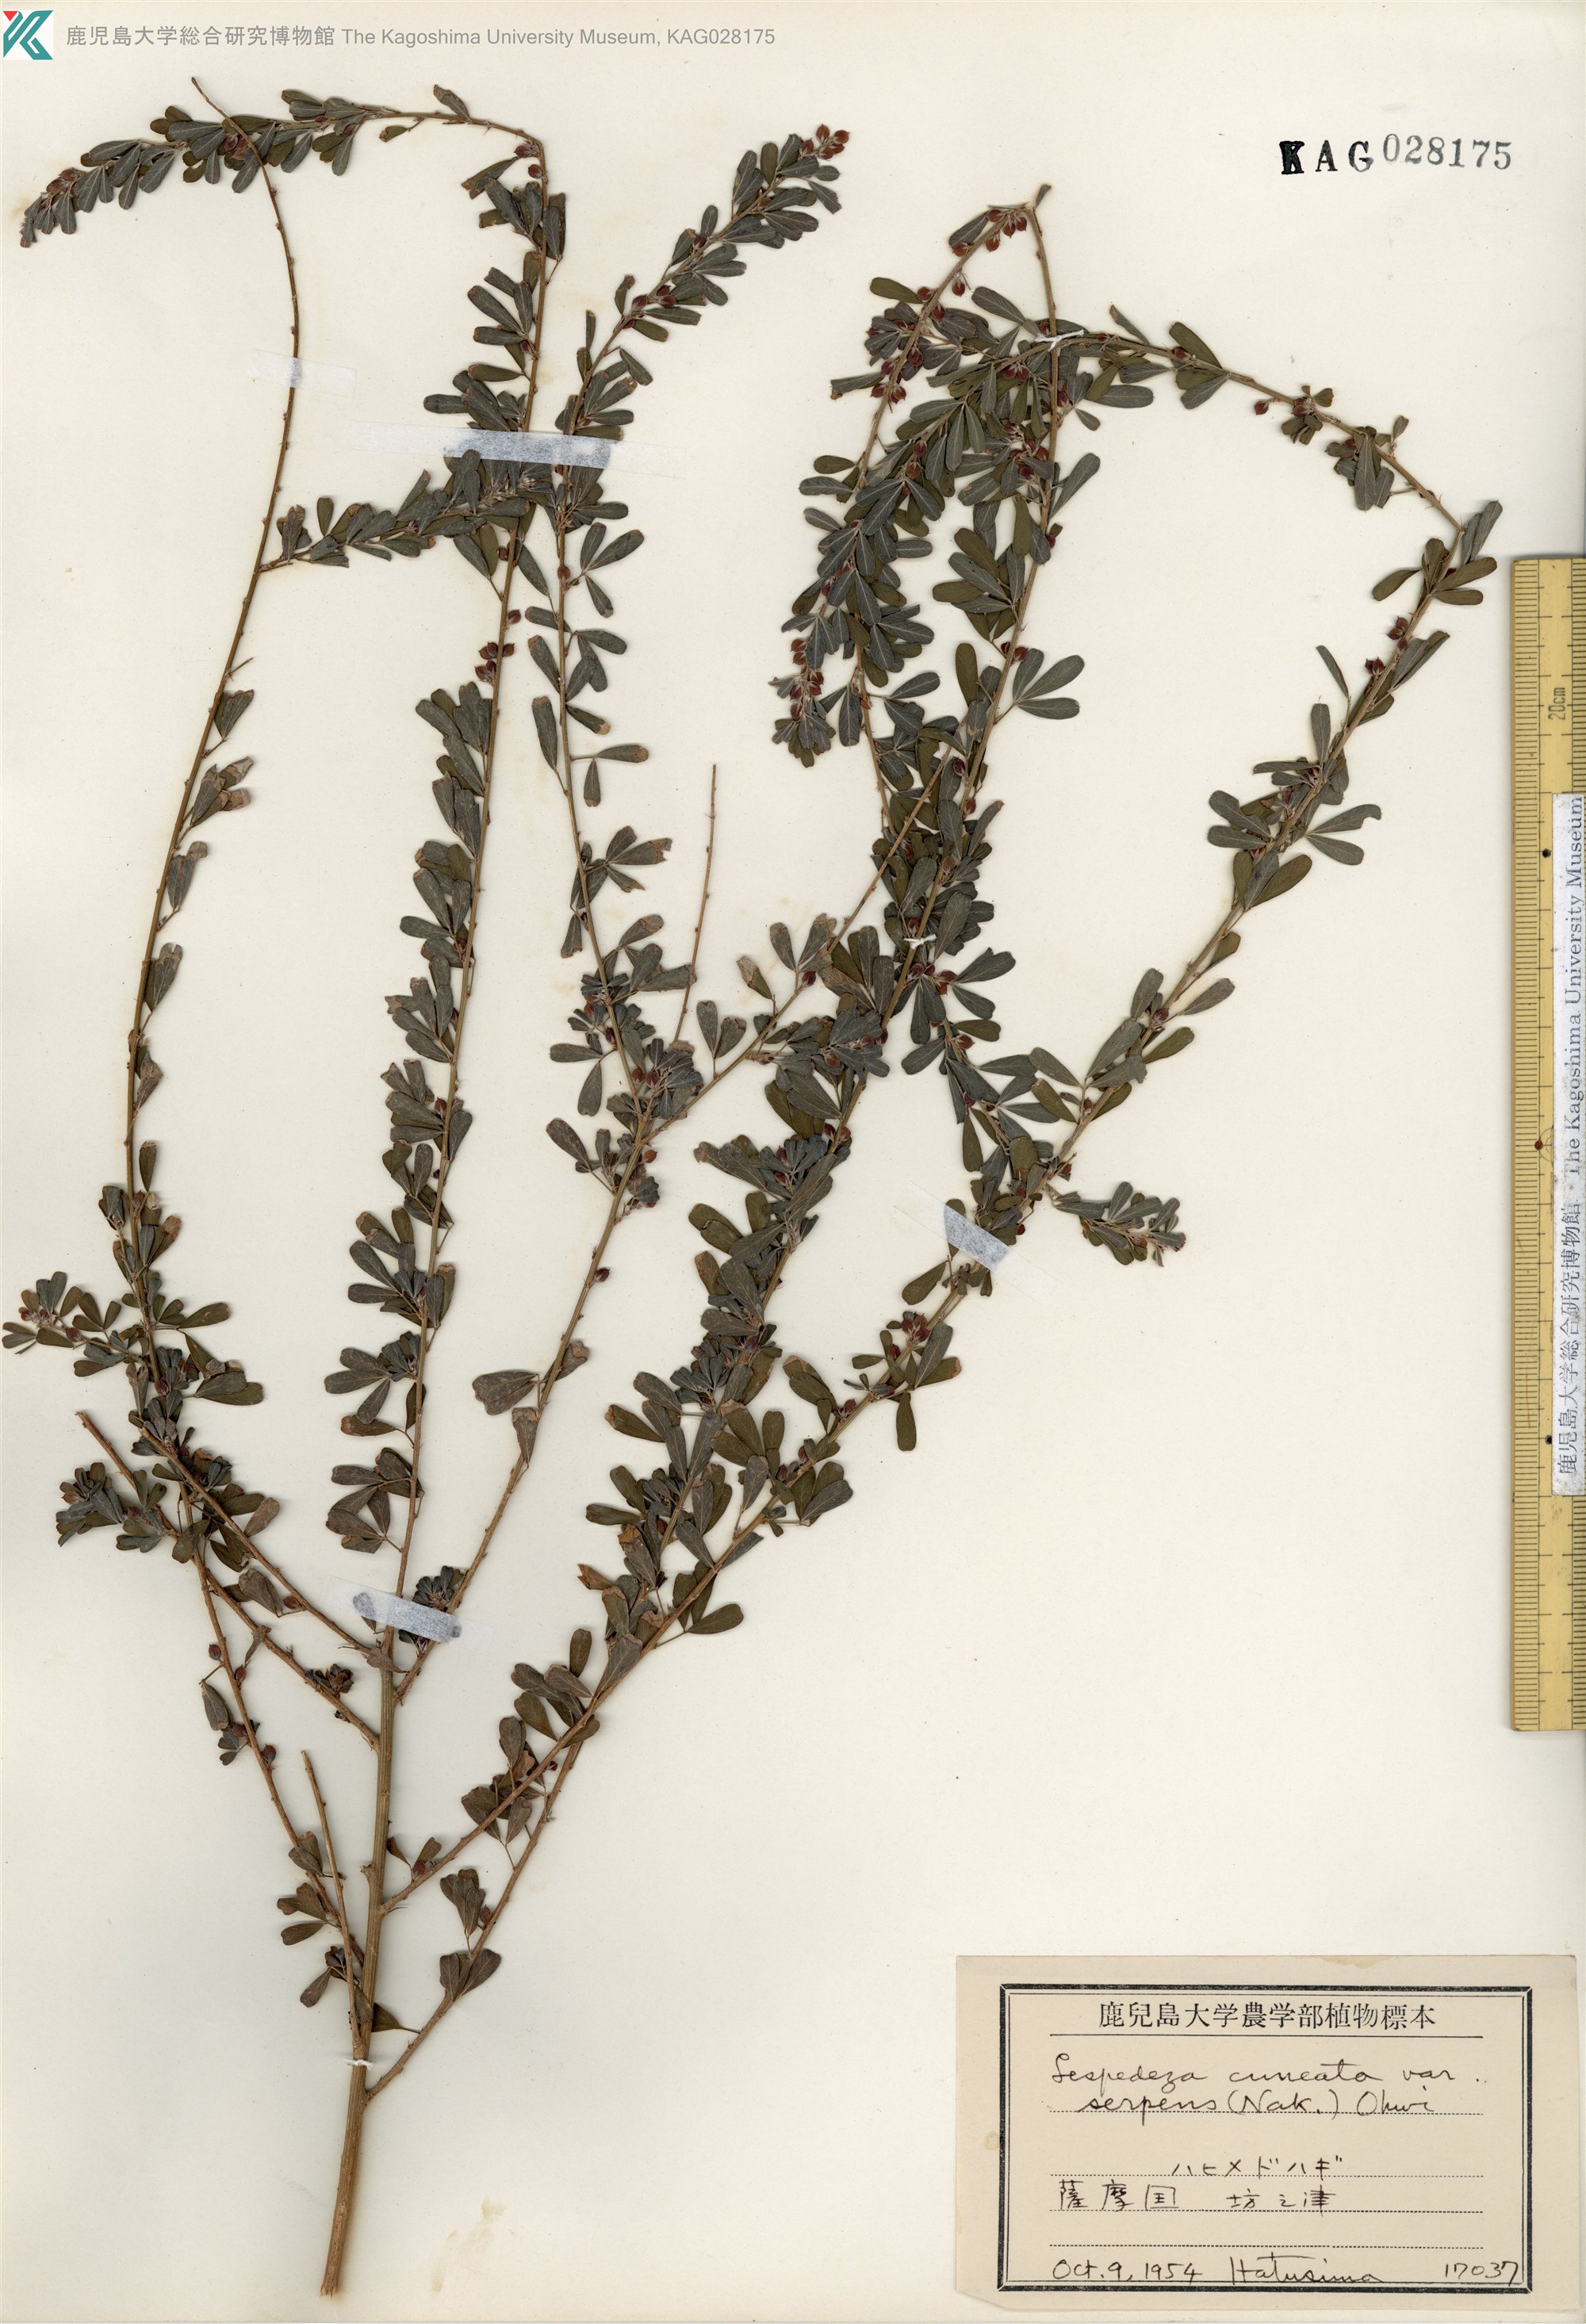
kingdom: Plantae
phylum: Tracheophyta
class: Magnoliopsida
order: Fabales
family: Fabaceae
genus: Lespedeza
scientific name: Lespedeza cuneata
